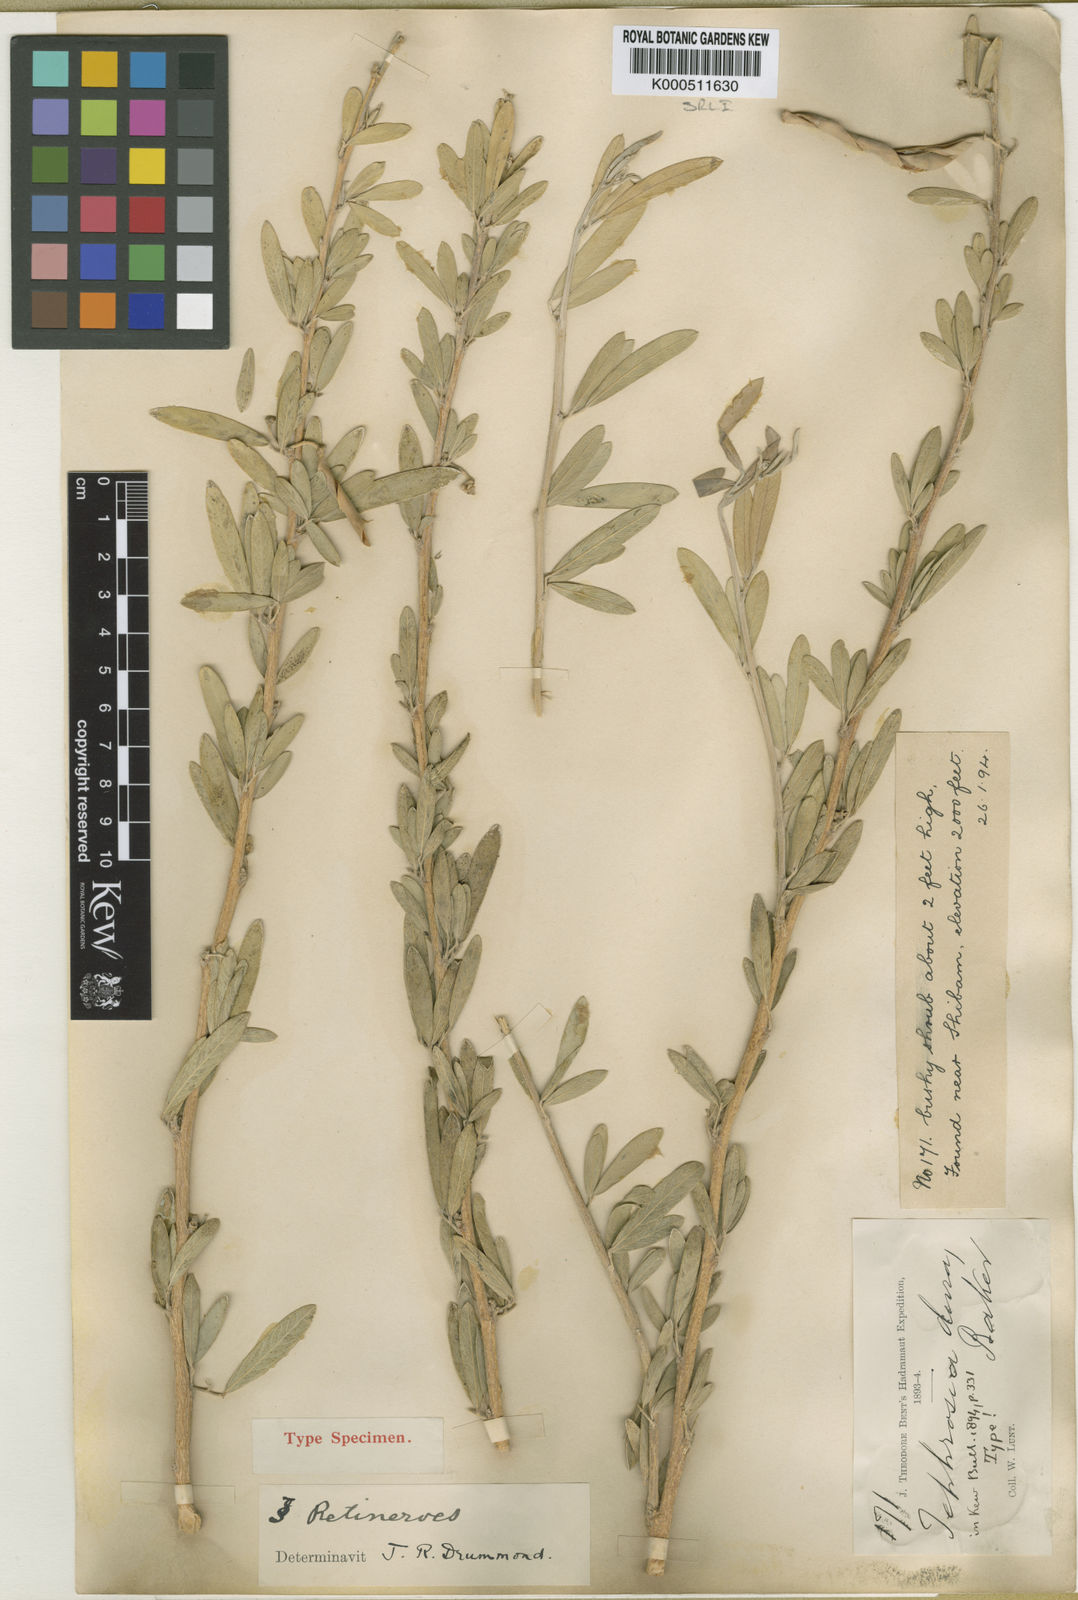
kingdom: Plantae
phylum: Tracheophyta
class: Magnoliopsida
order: Fabales
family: Fabaceae
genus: Tephrosia
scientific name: Tephrosia dura
